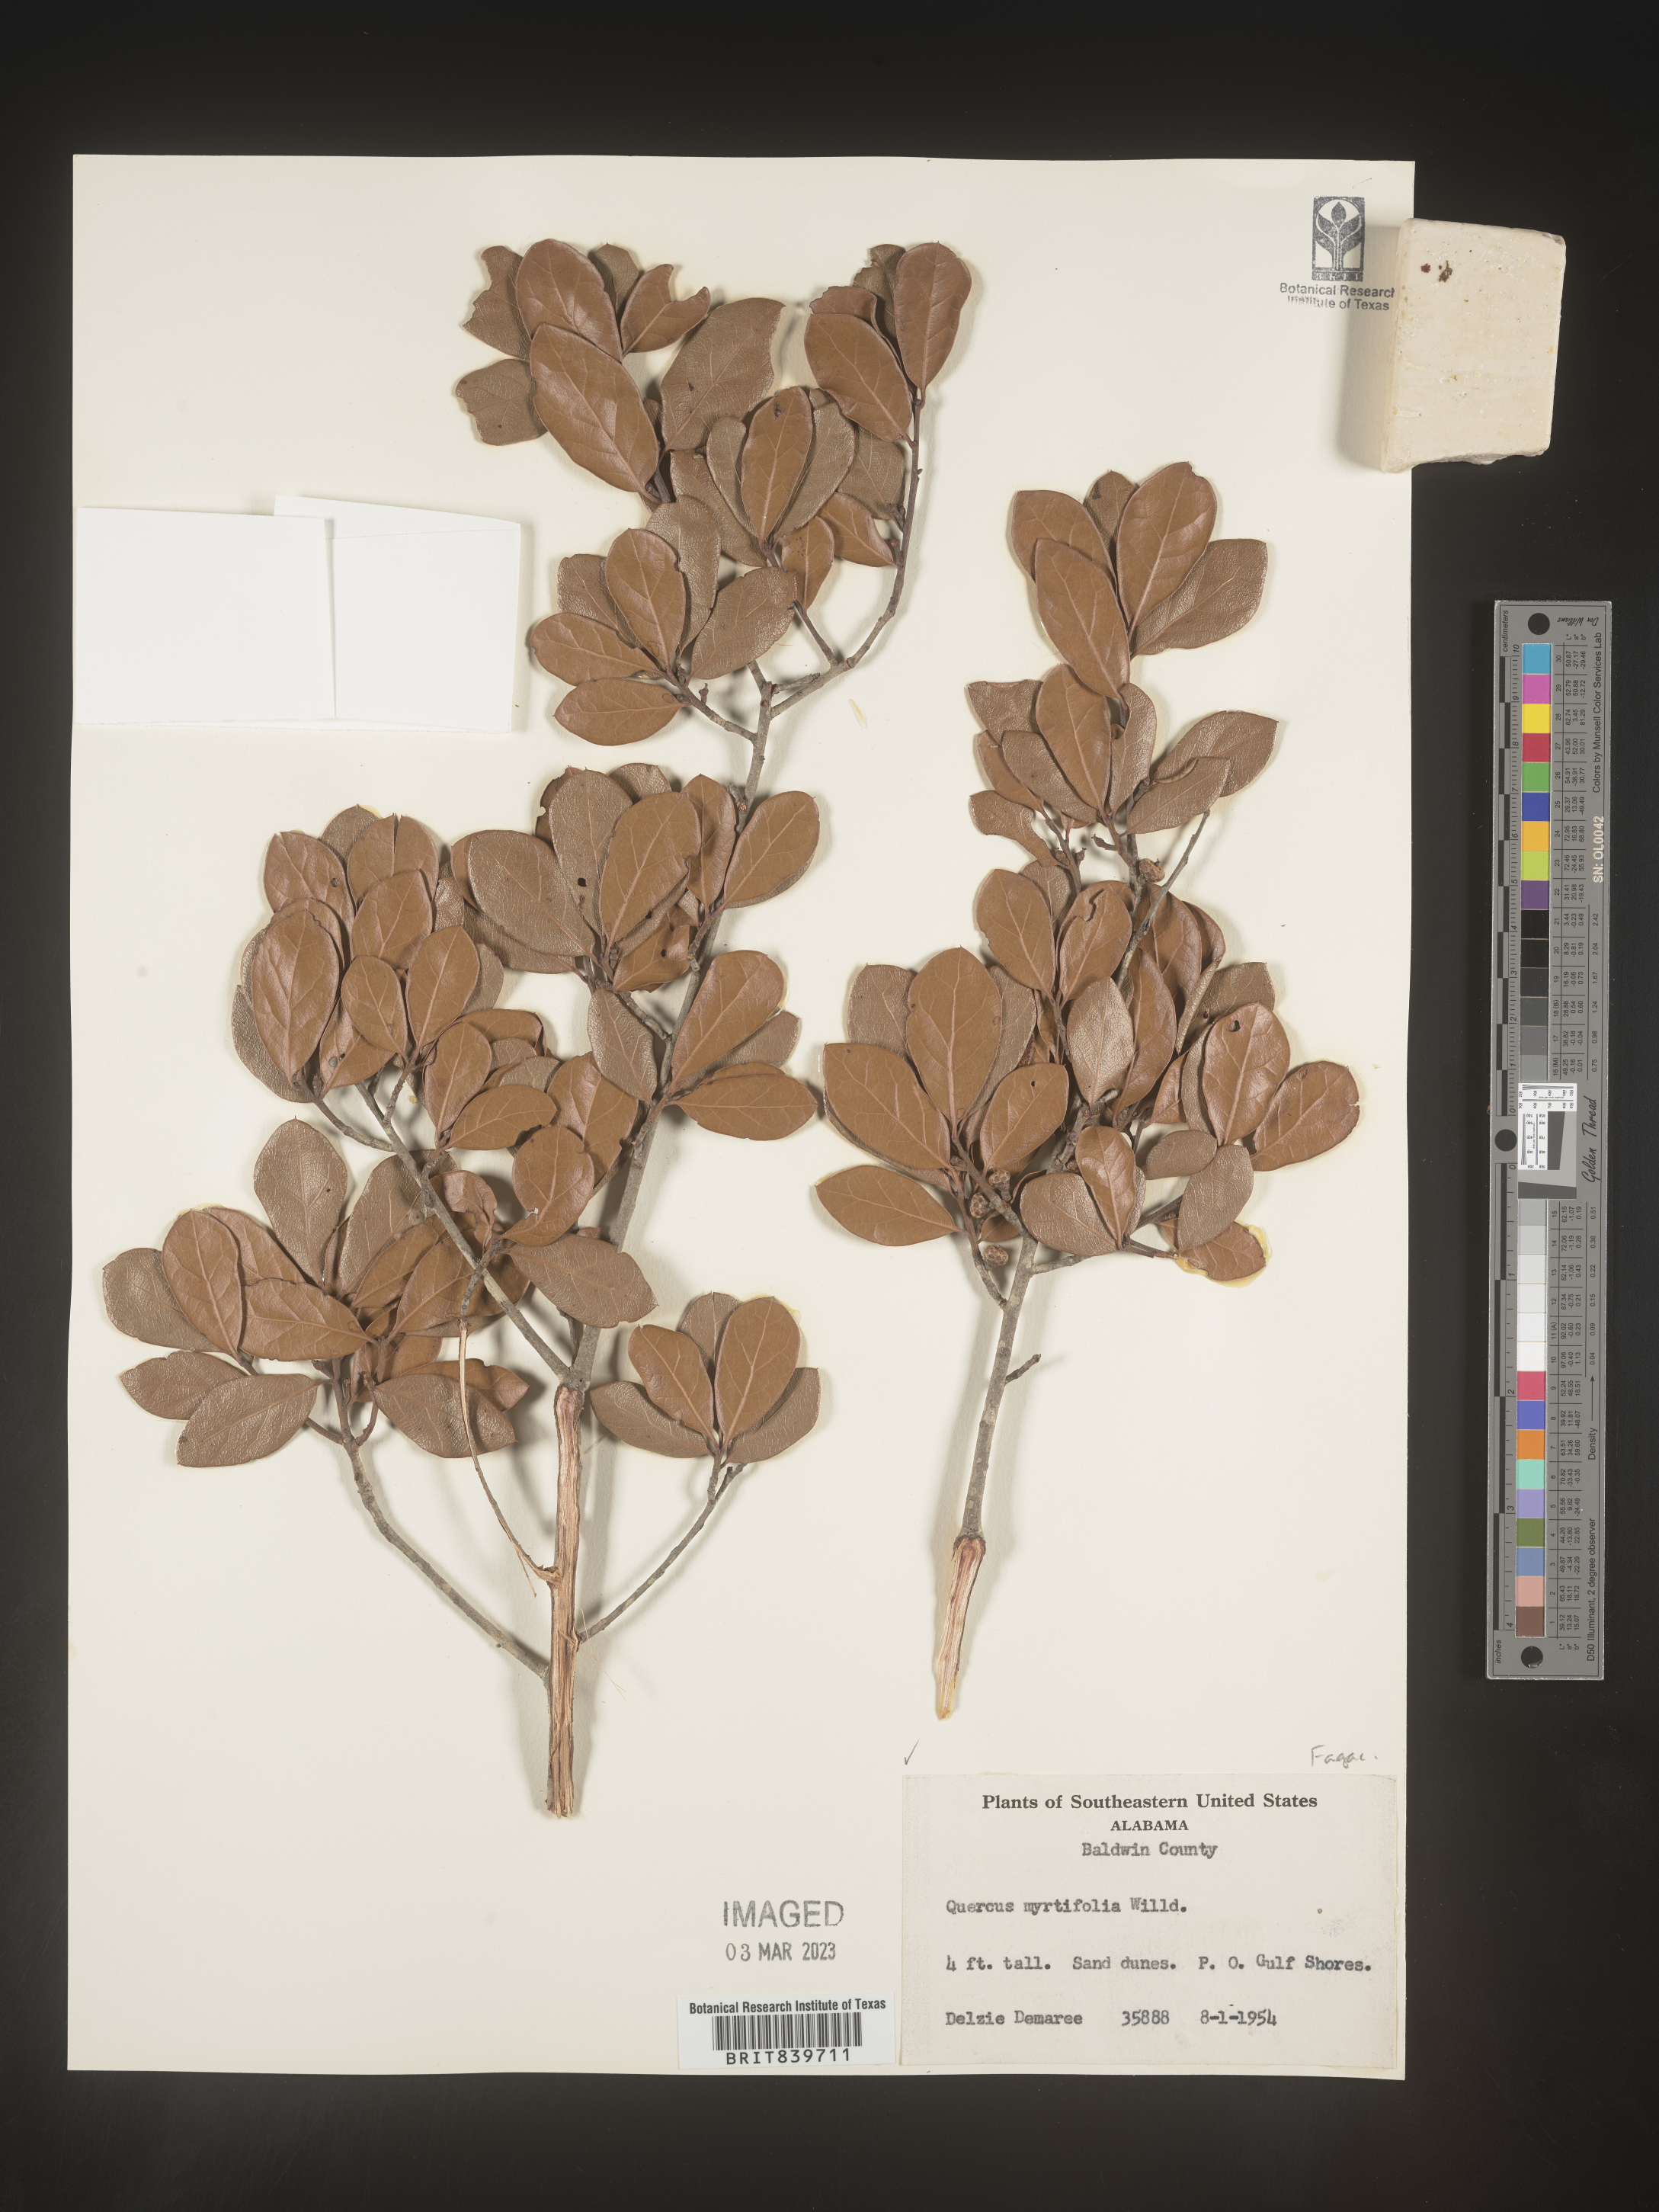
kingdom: Plantae
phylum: Tracheophyta
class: Magnoliopsida
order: Fagales
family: Fagaceae
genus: Quercus
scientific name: Quercus
